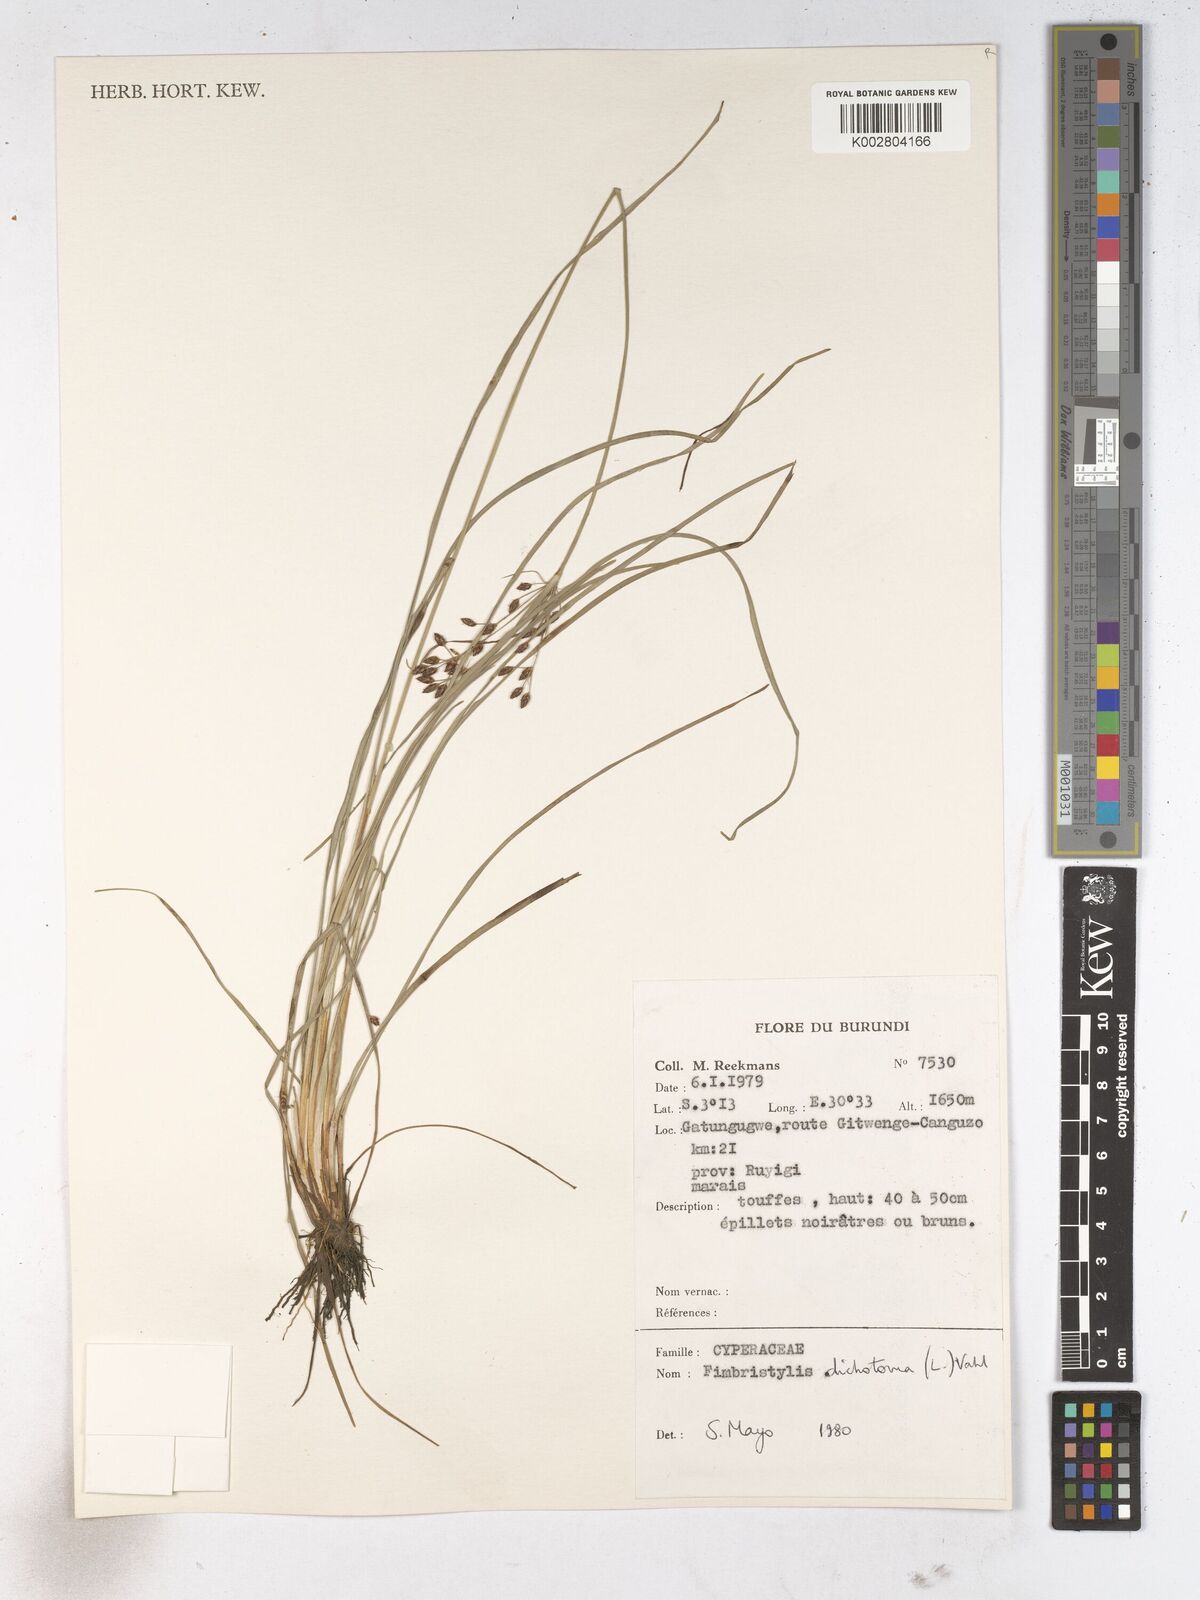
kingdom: Plantae
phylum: Tracheophyta
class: Liliopsida
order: Poales
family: Cyperaceae
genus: Fimbristylis
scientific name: Fimbristylis dichotoma
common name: Forked fimbry
